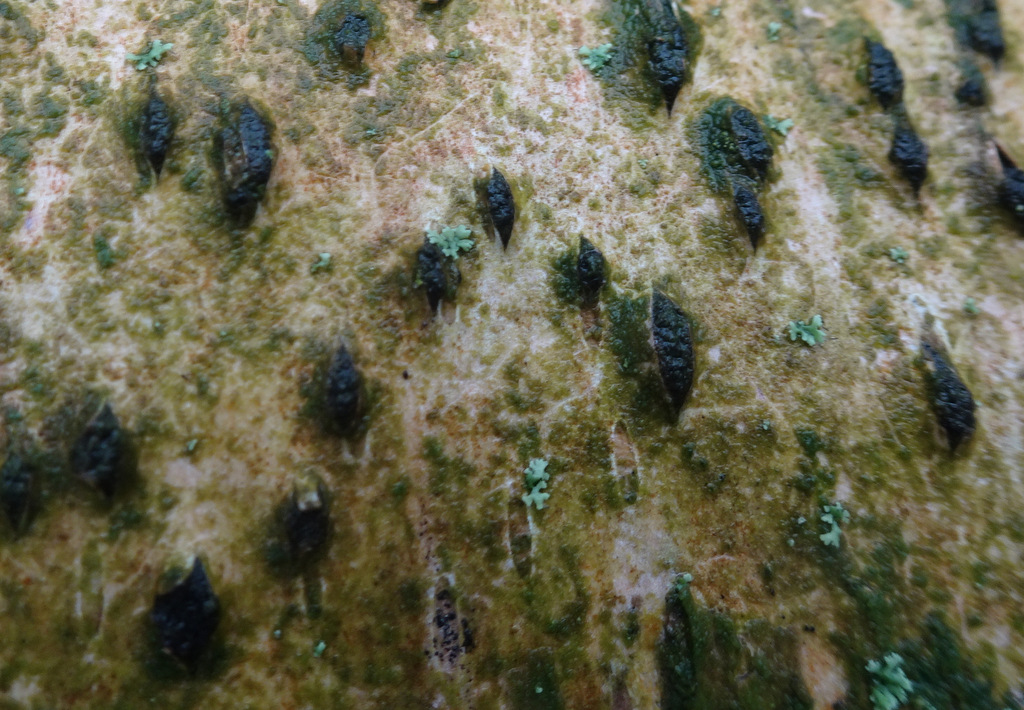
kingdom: Fungi
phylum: Ascomycota
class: Sordariomycetes
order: Xylariales
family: Diatrypaceae
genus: Diatrypella
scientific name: Diatrypella favacea
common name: klemt kulskorpe
